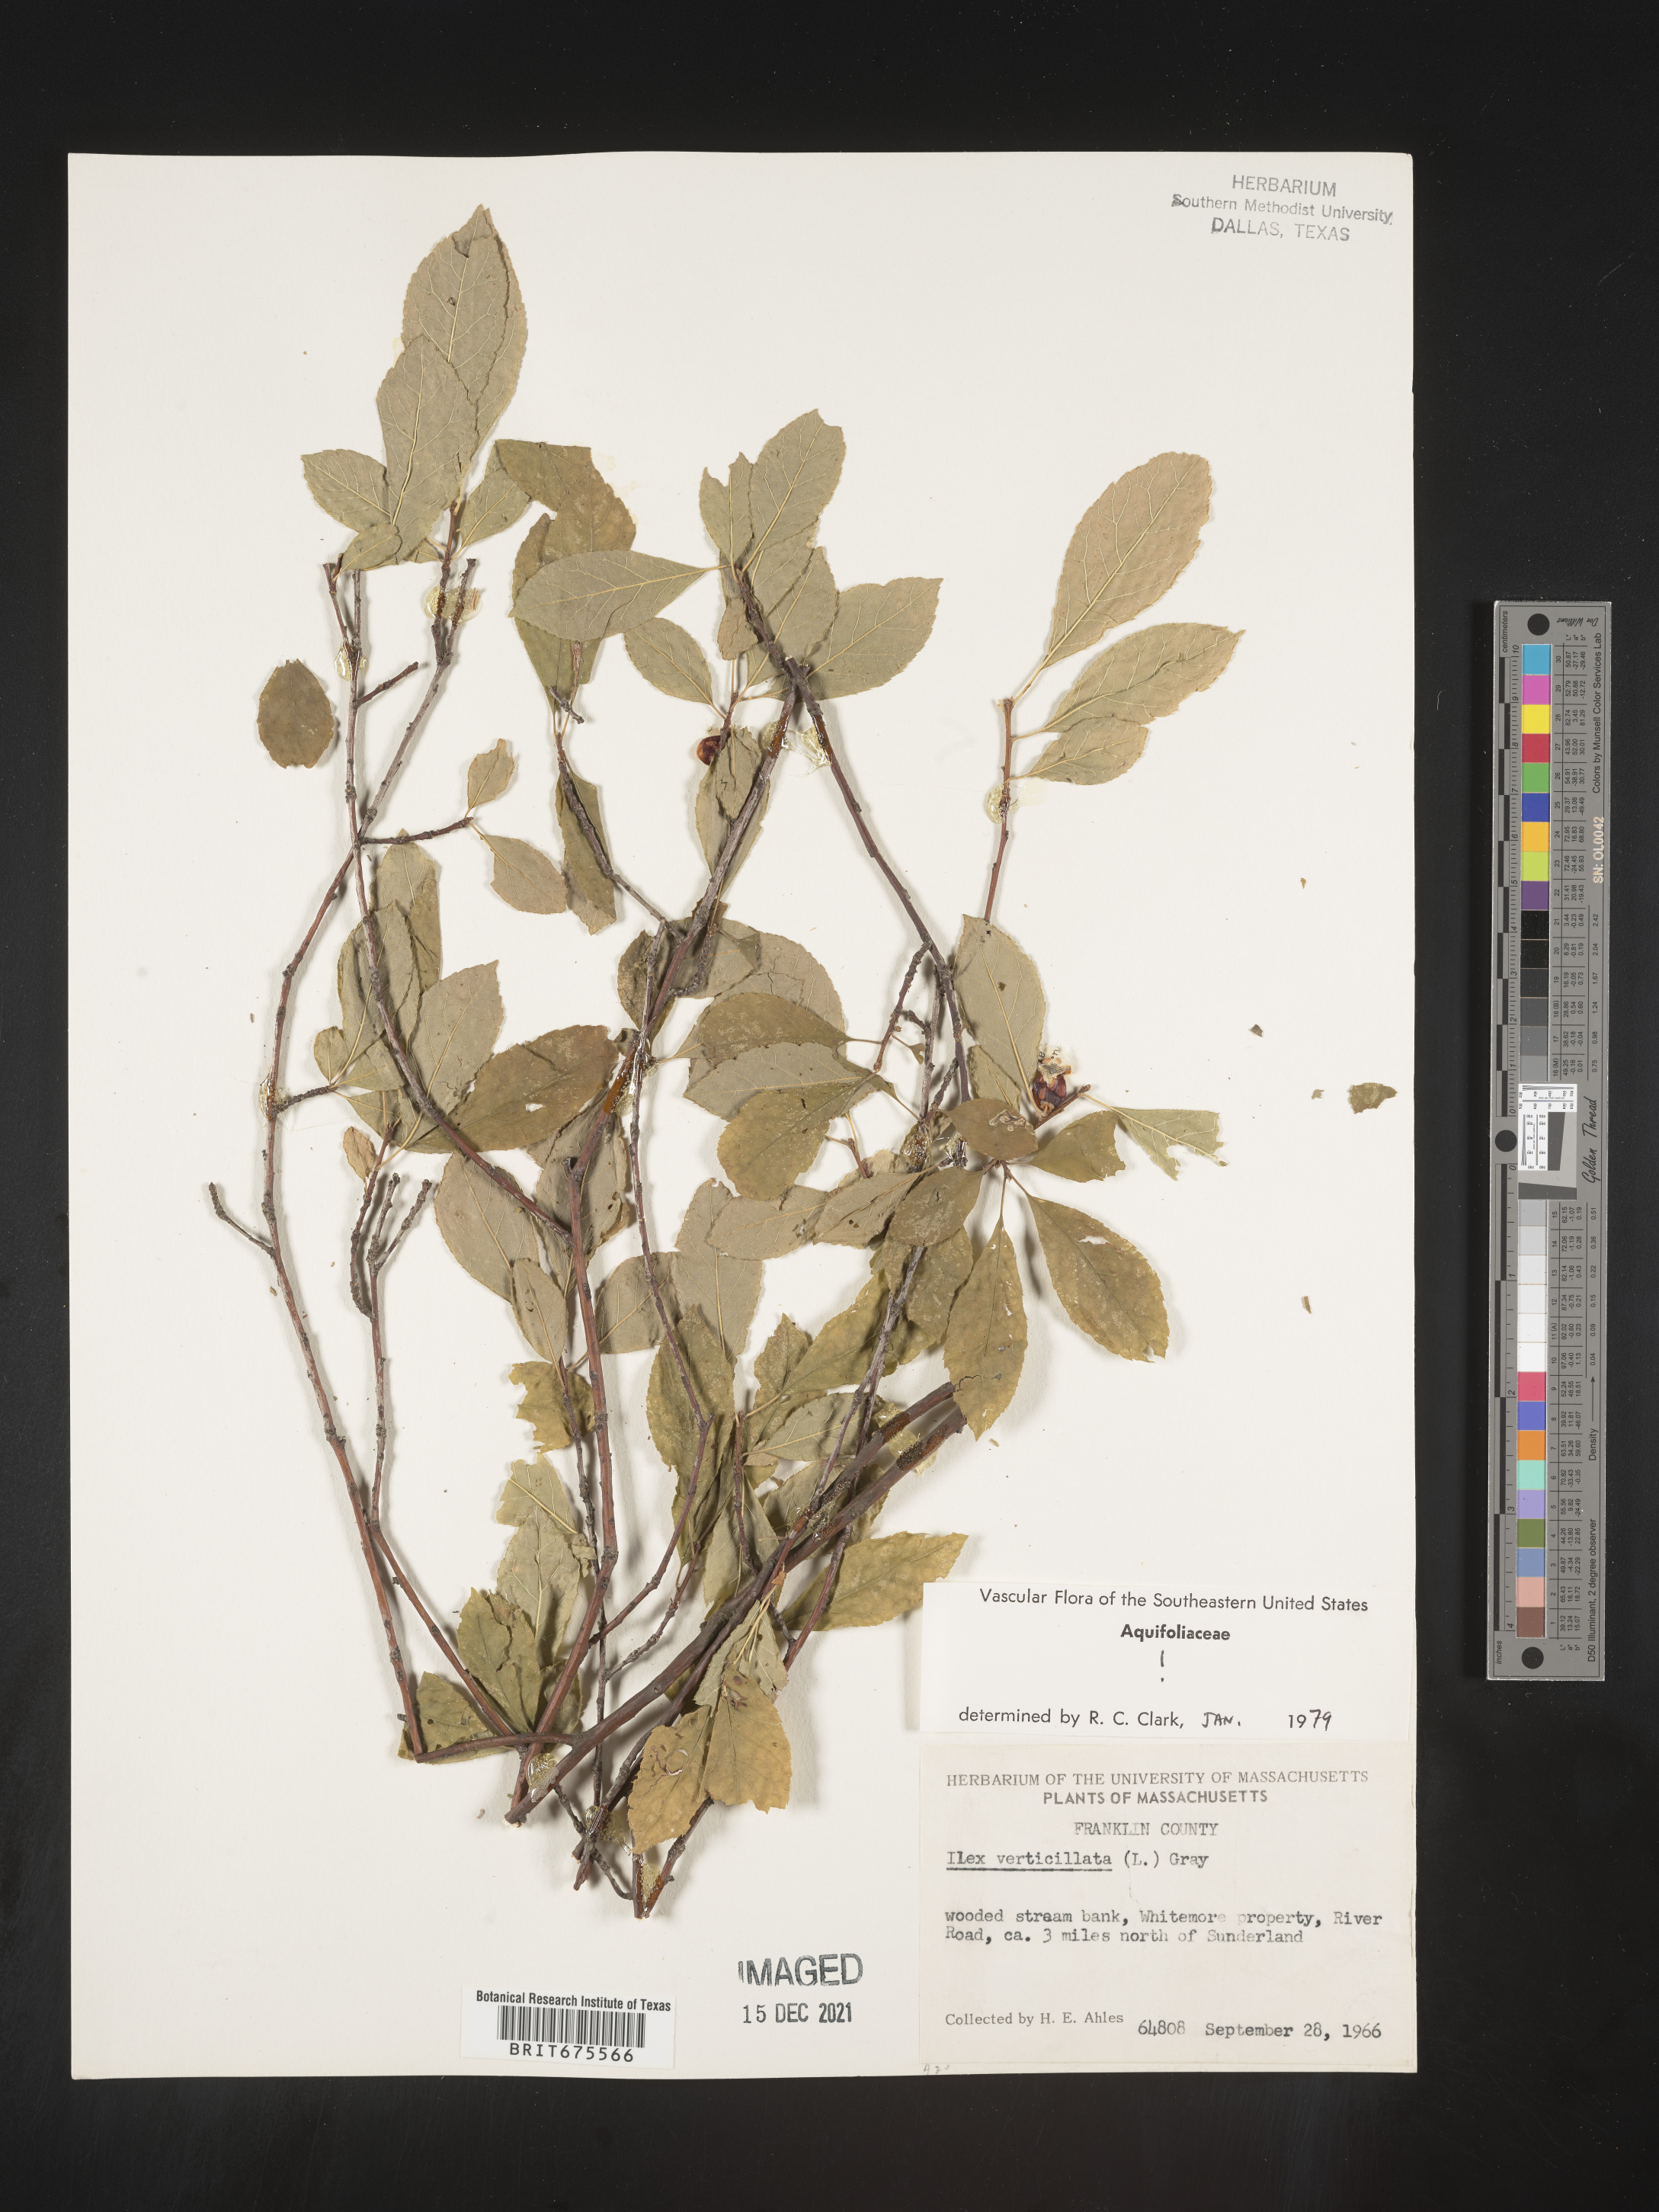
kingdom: Plantae
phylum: Tracheophyta
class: Magnoliopsida
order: Aquifoliales
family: Aquifoliaceae
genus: Ilex
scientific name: Ilex verticillata
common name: Virginia winterberry
